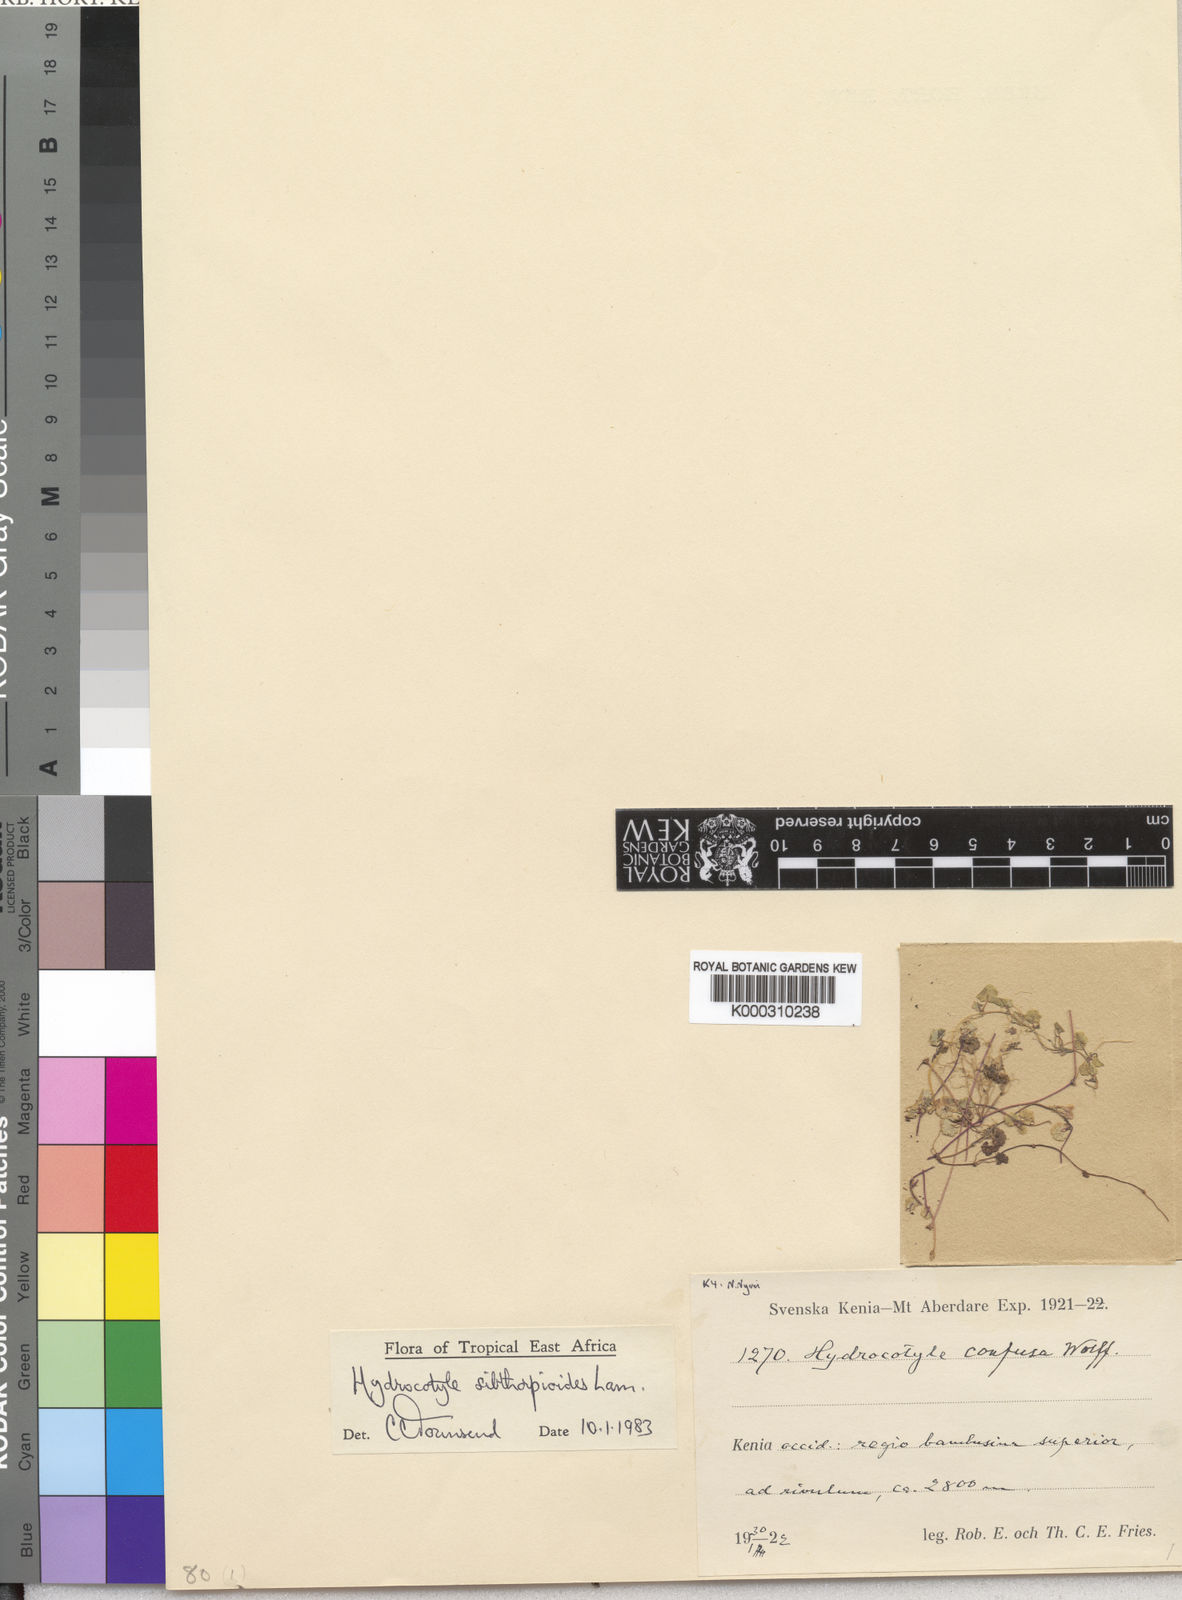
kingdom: Plantae
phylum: Tracheophyta
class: Magnoliopsida
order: Apiales
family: Araliaceae
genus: Hydrocotyle
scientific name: Hydrocotyle
